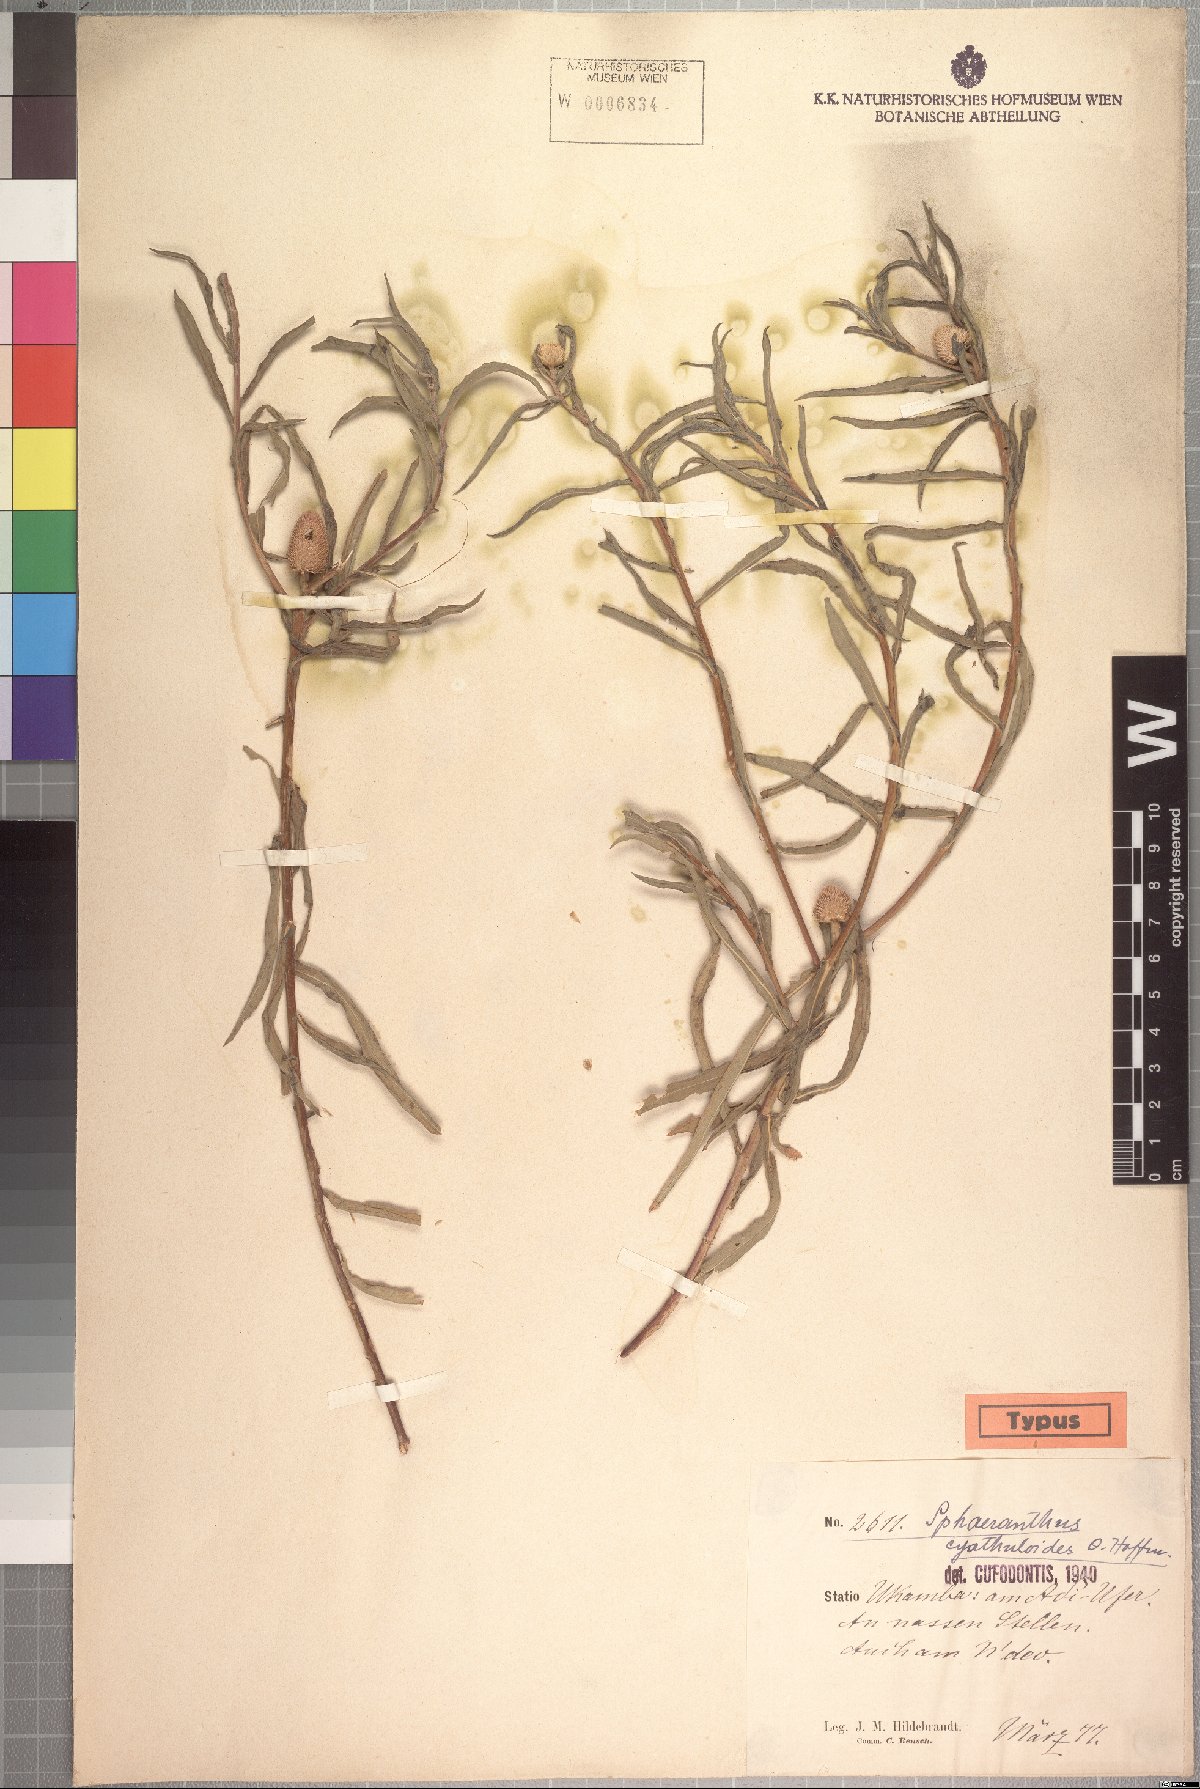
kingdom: Plantae
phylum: Tracheophyta
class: Magnoliopsida
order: Asterales
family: Asteraceae
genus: Sphaeranthus
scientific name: Sphaeranthus kirkii
